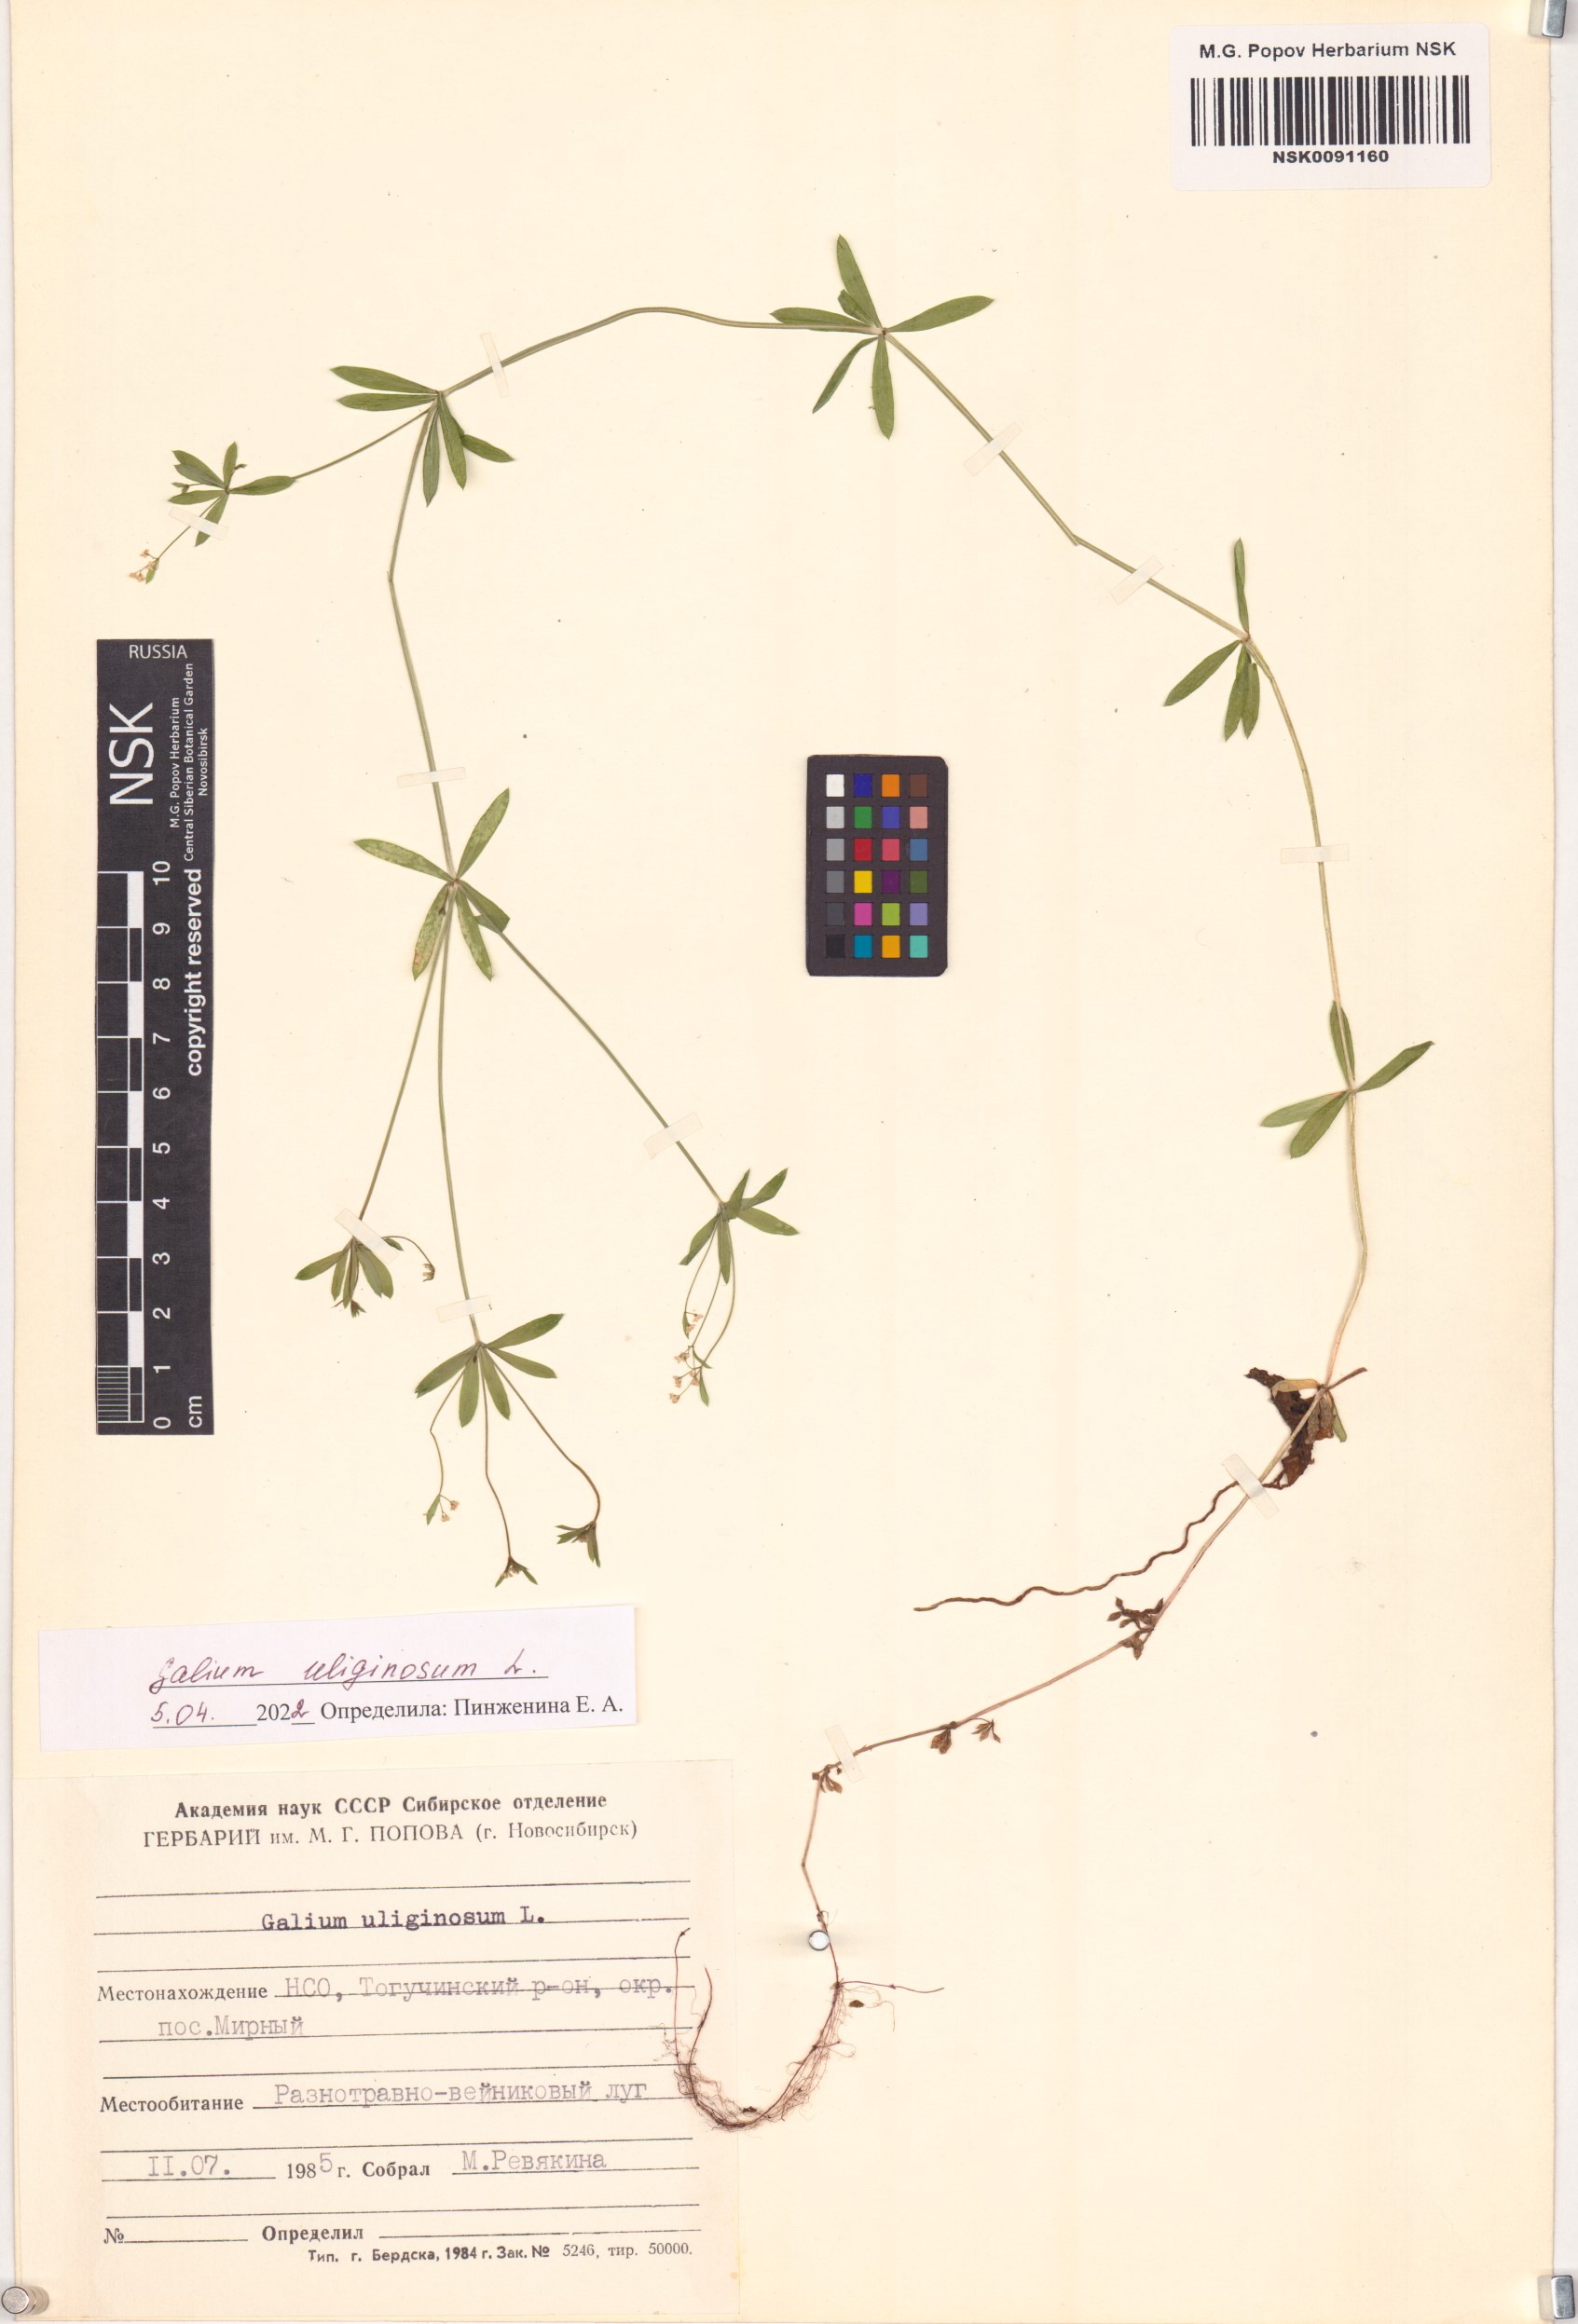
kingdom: Plantae
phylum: Tracheophyta
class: Magnoliopsida
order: Gentianales
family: Rubiaceae
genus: Galium
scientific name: Galium uliginosum
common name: Fen bedstraw
